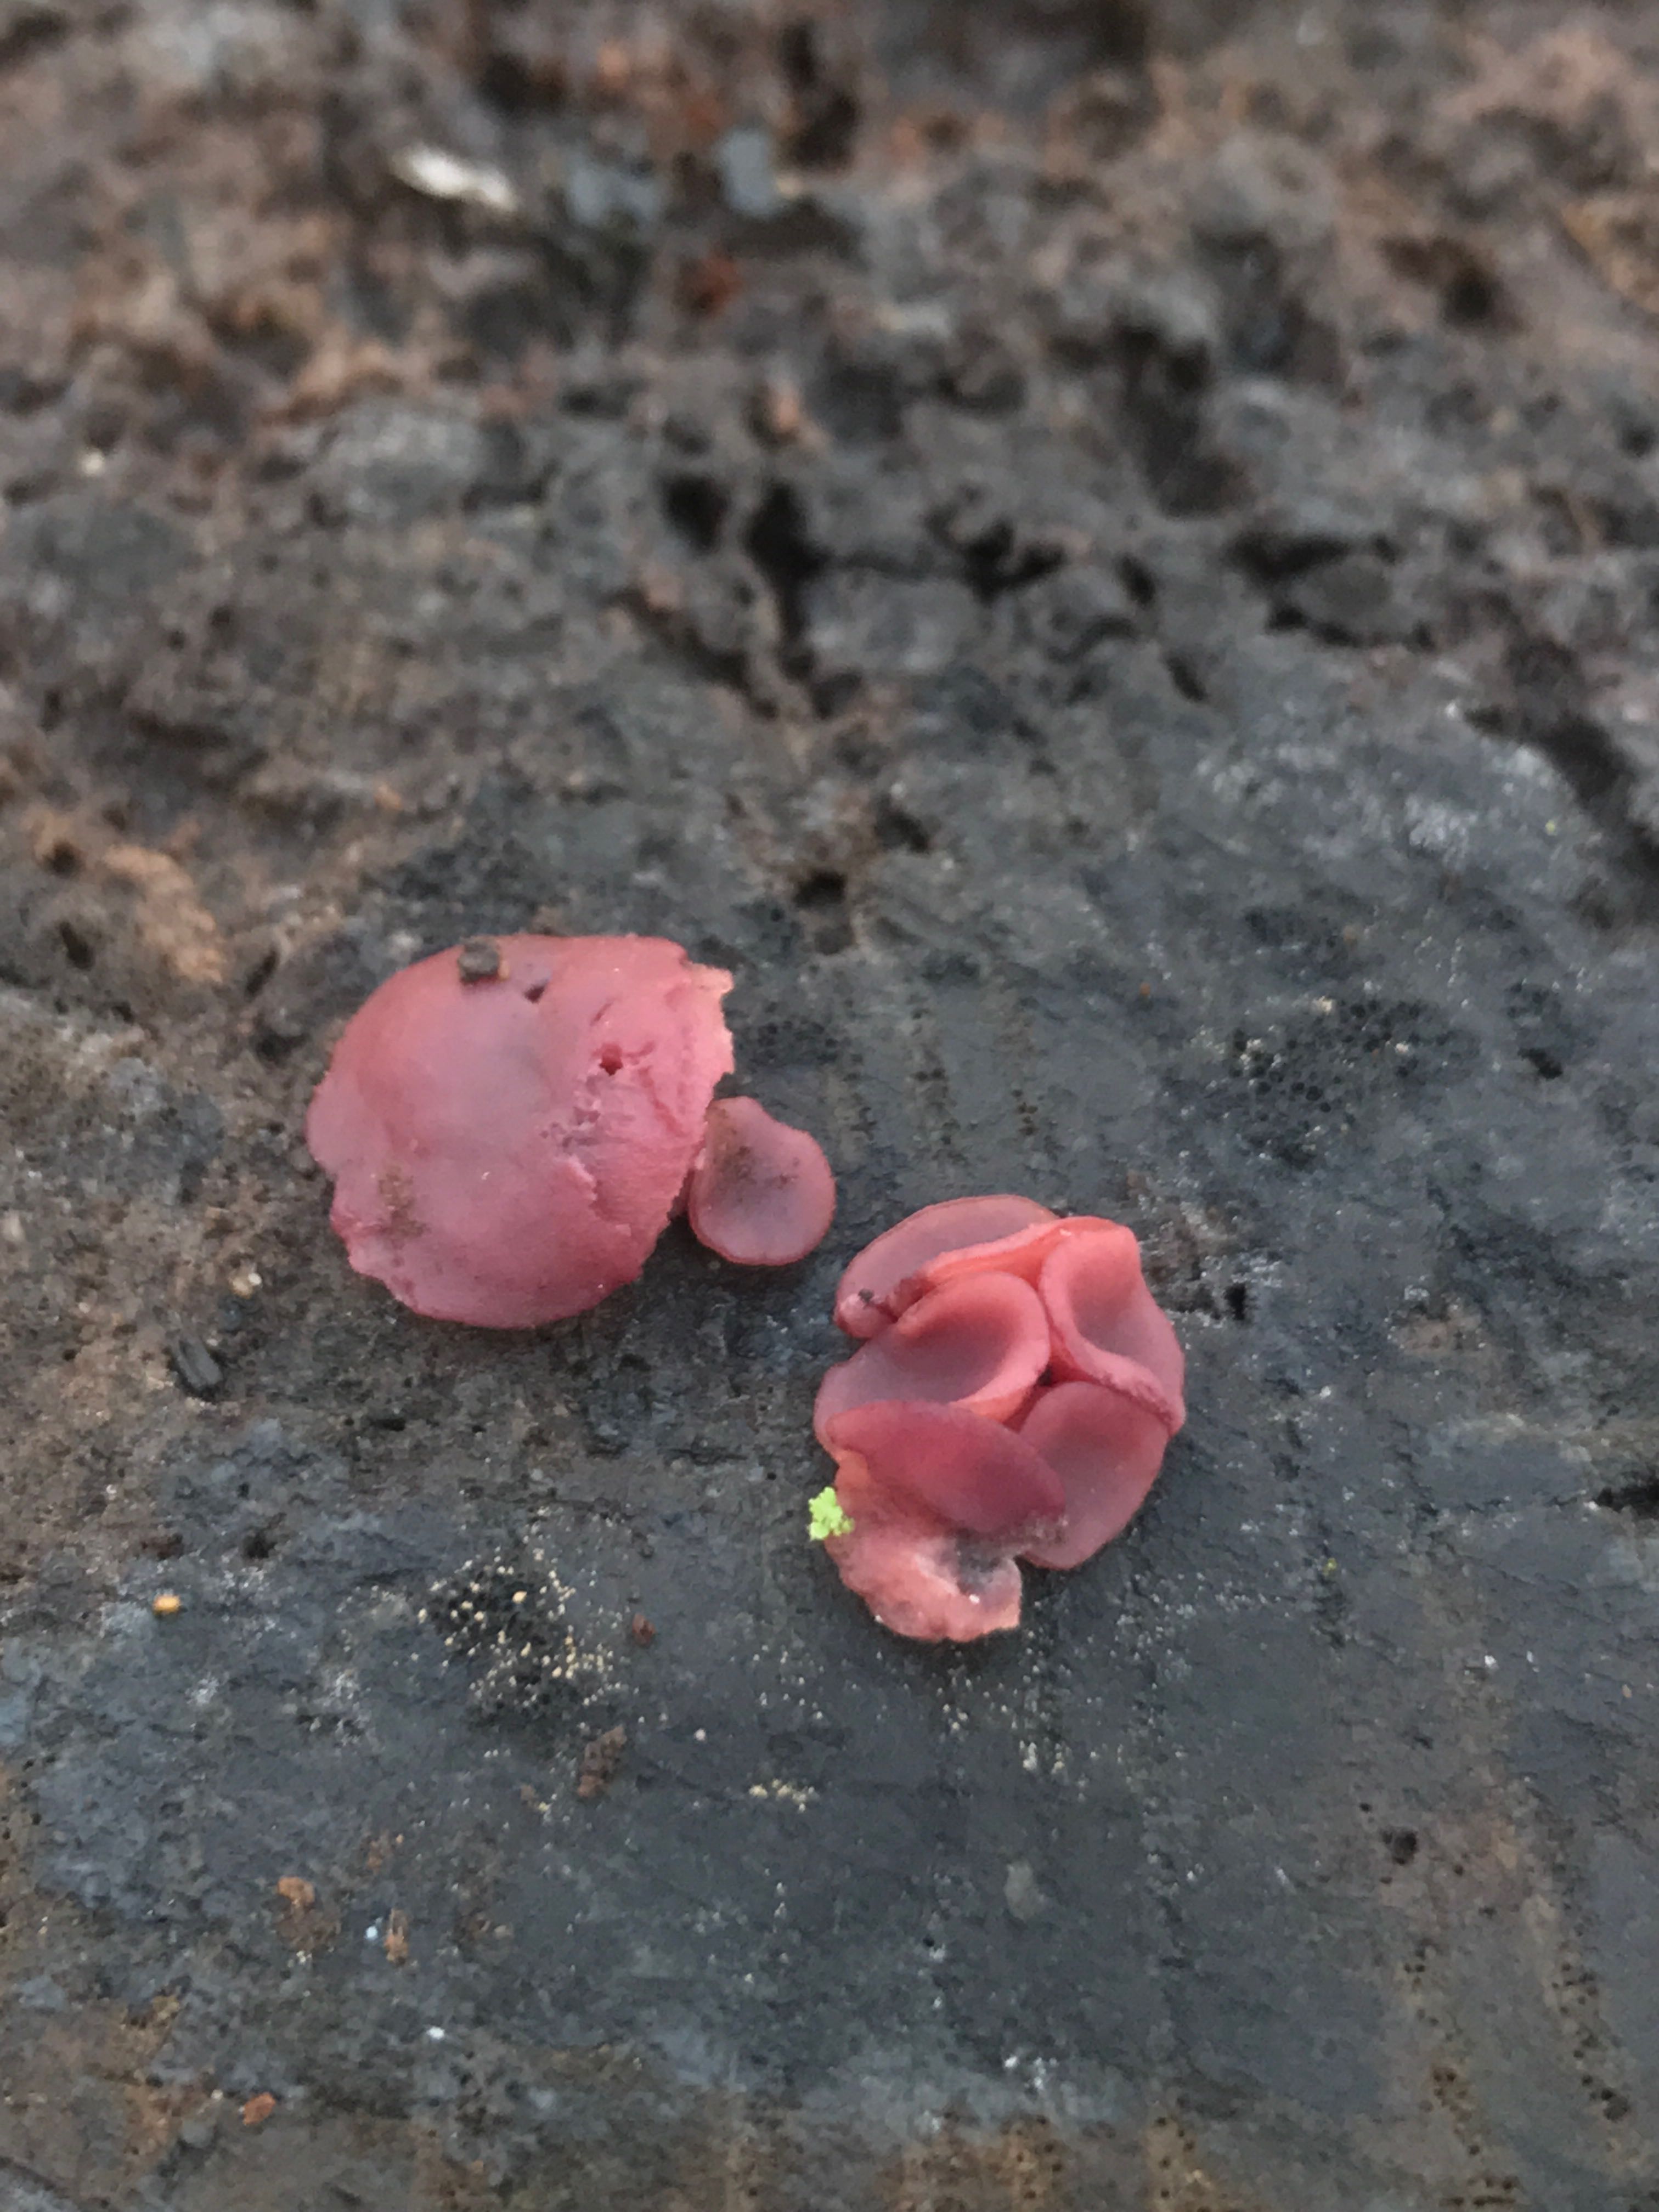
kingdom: Fungi
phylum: Ascomycota
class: Leotiomycetes
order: Helotiales
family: Gelatinodiscaceae
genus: Ascocoryne
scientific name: Ascocoryne cylichnium
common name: stor sejskive
